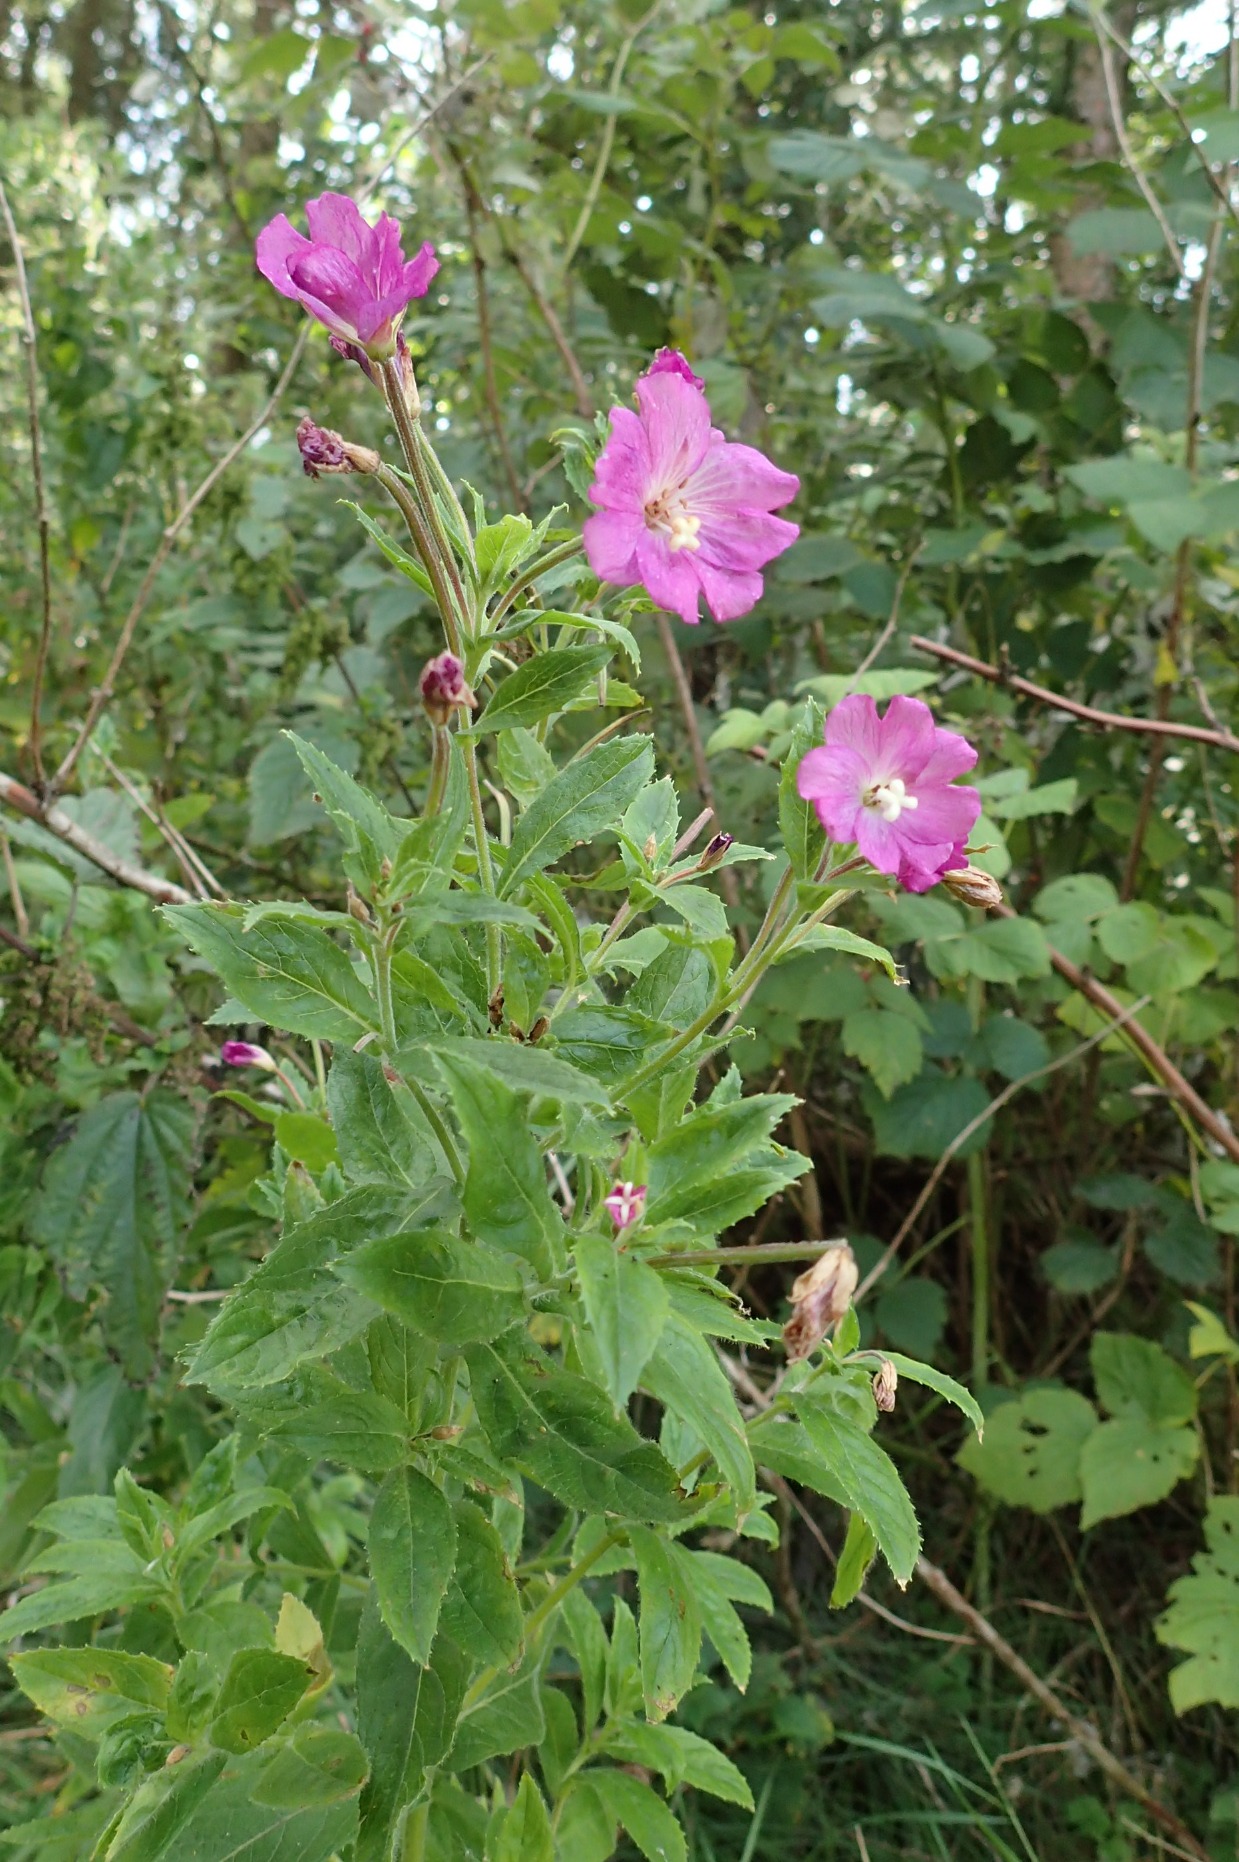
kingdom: Plantae
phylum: Tracheophyta
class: Magnoliopsida
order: Myrtales
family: Onagraceae
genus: Epilobium
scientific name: Epilobium hirsutum
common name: Lådden dueurt
